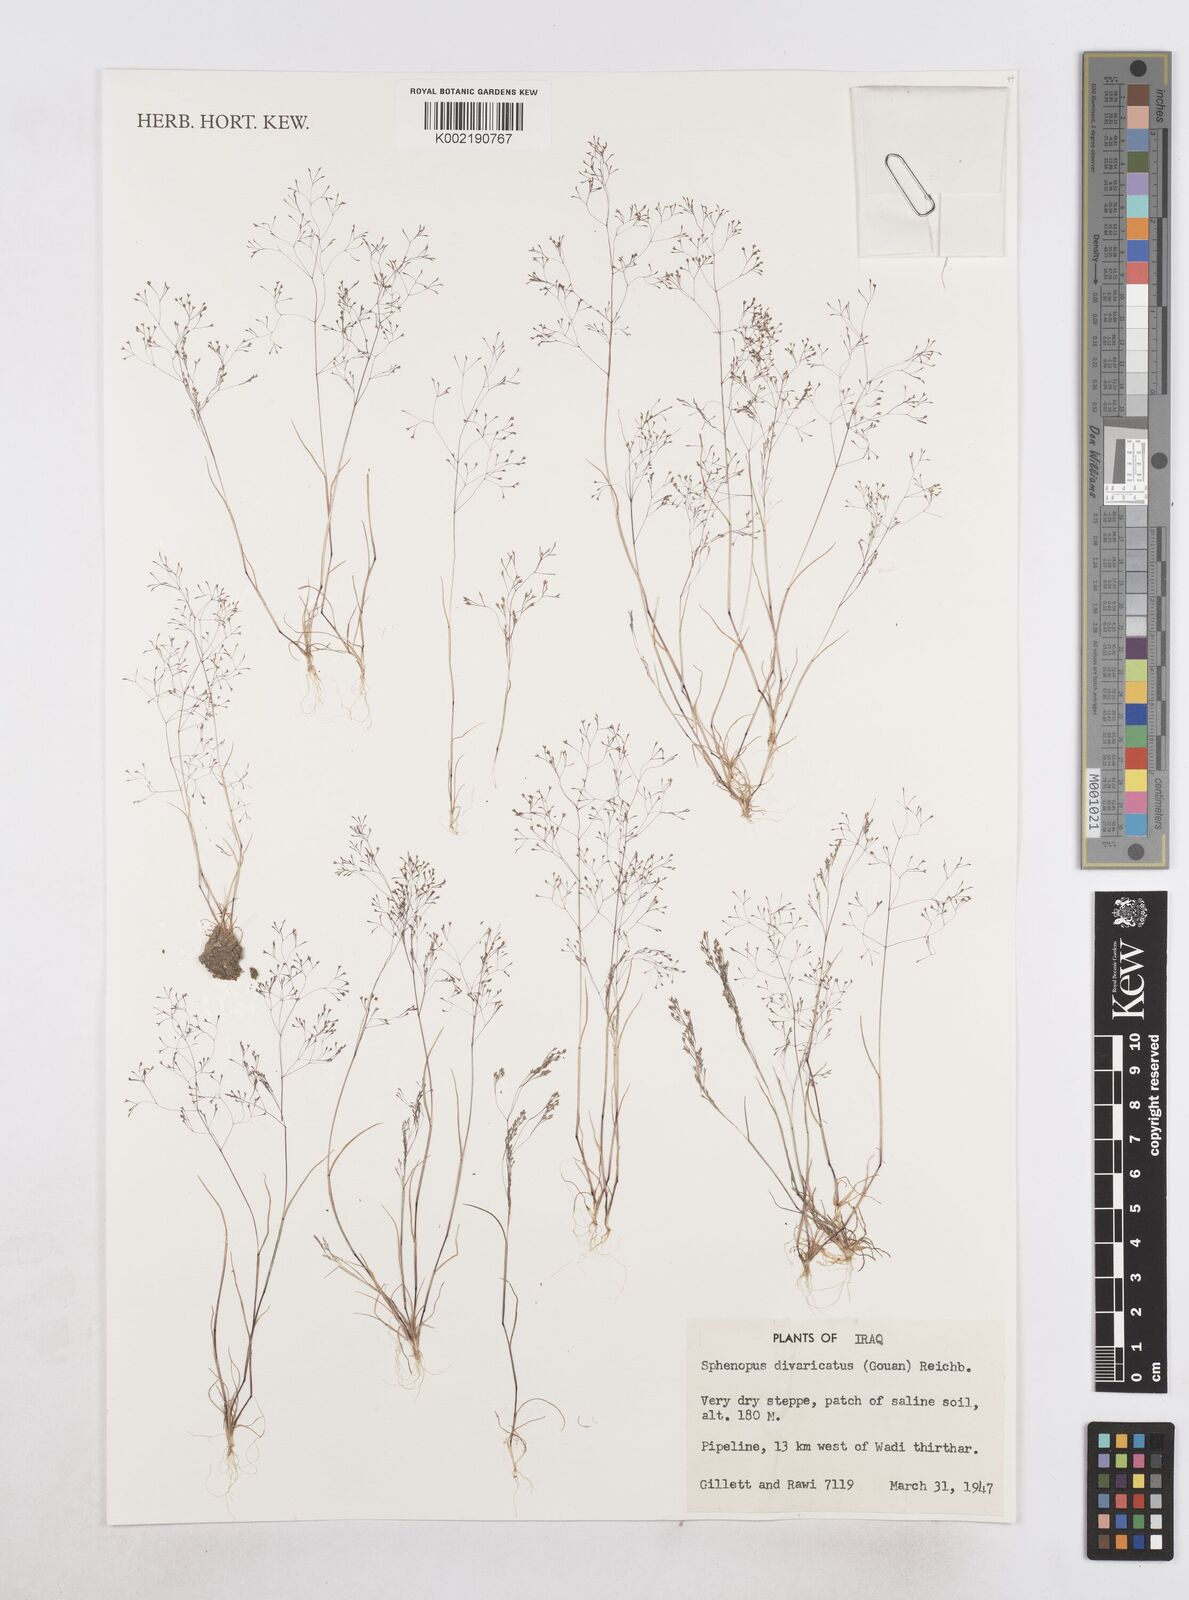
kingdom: Plantae
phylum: Tracheophyta
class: Liliopsida
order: Poales
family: Poaceae
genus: Sphenopus
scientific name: Sphenopus divaricatus
